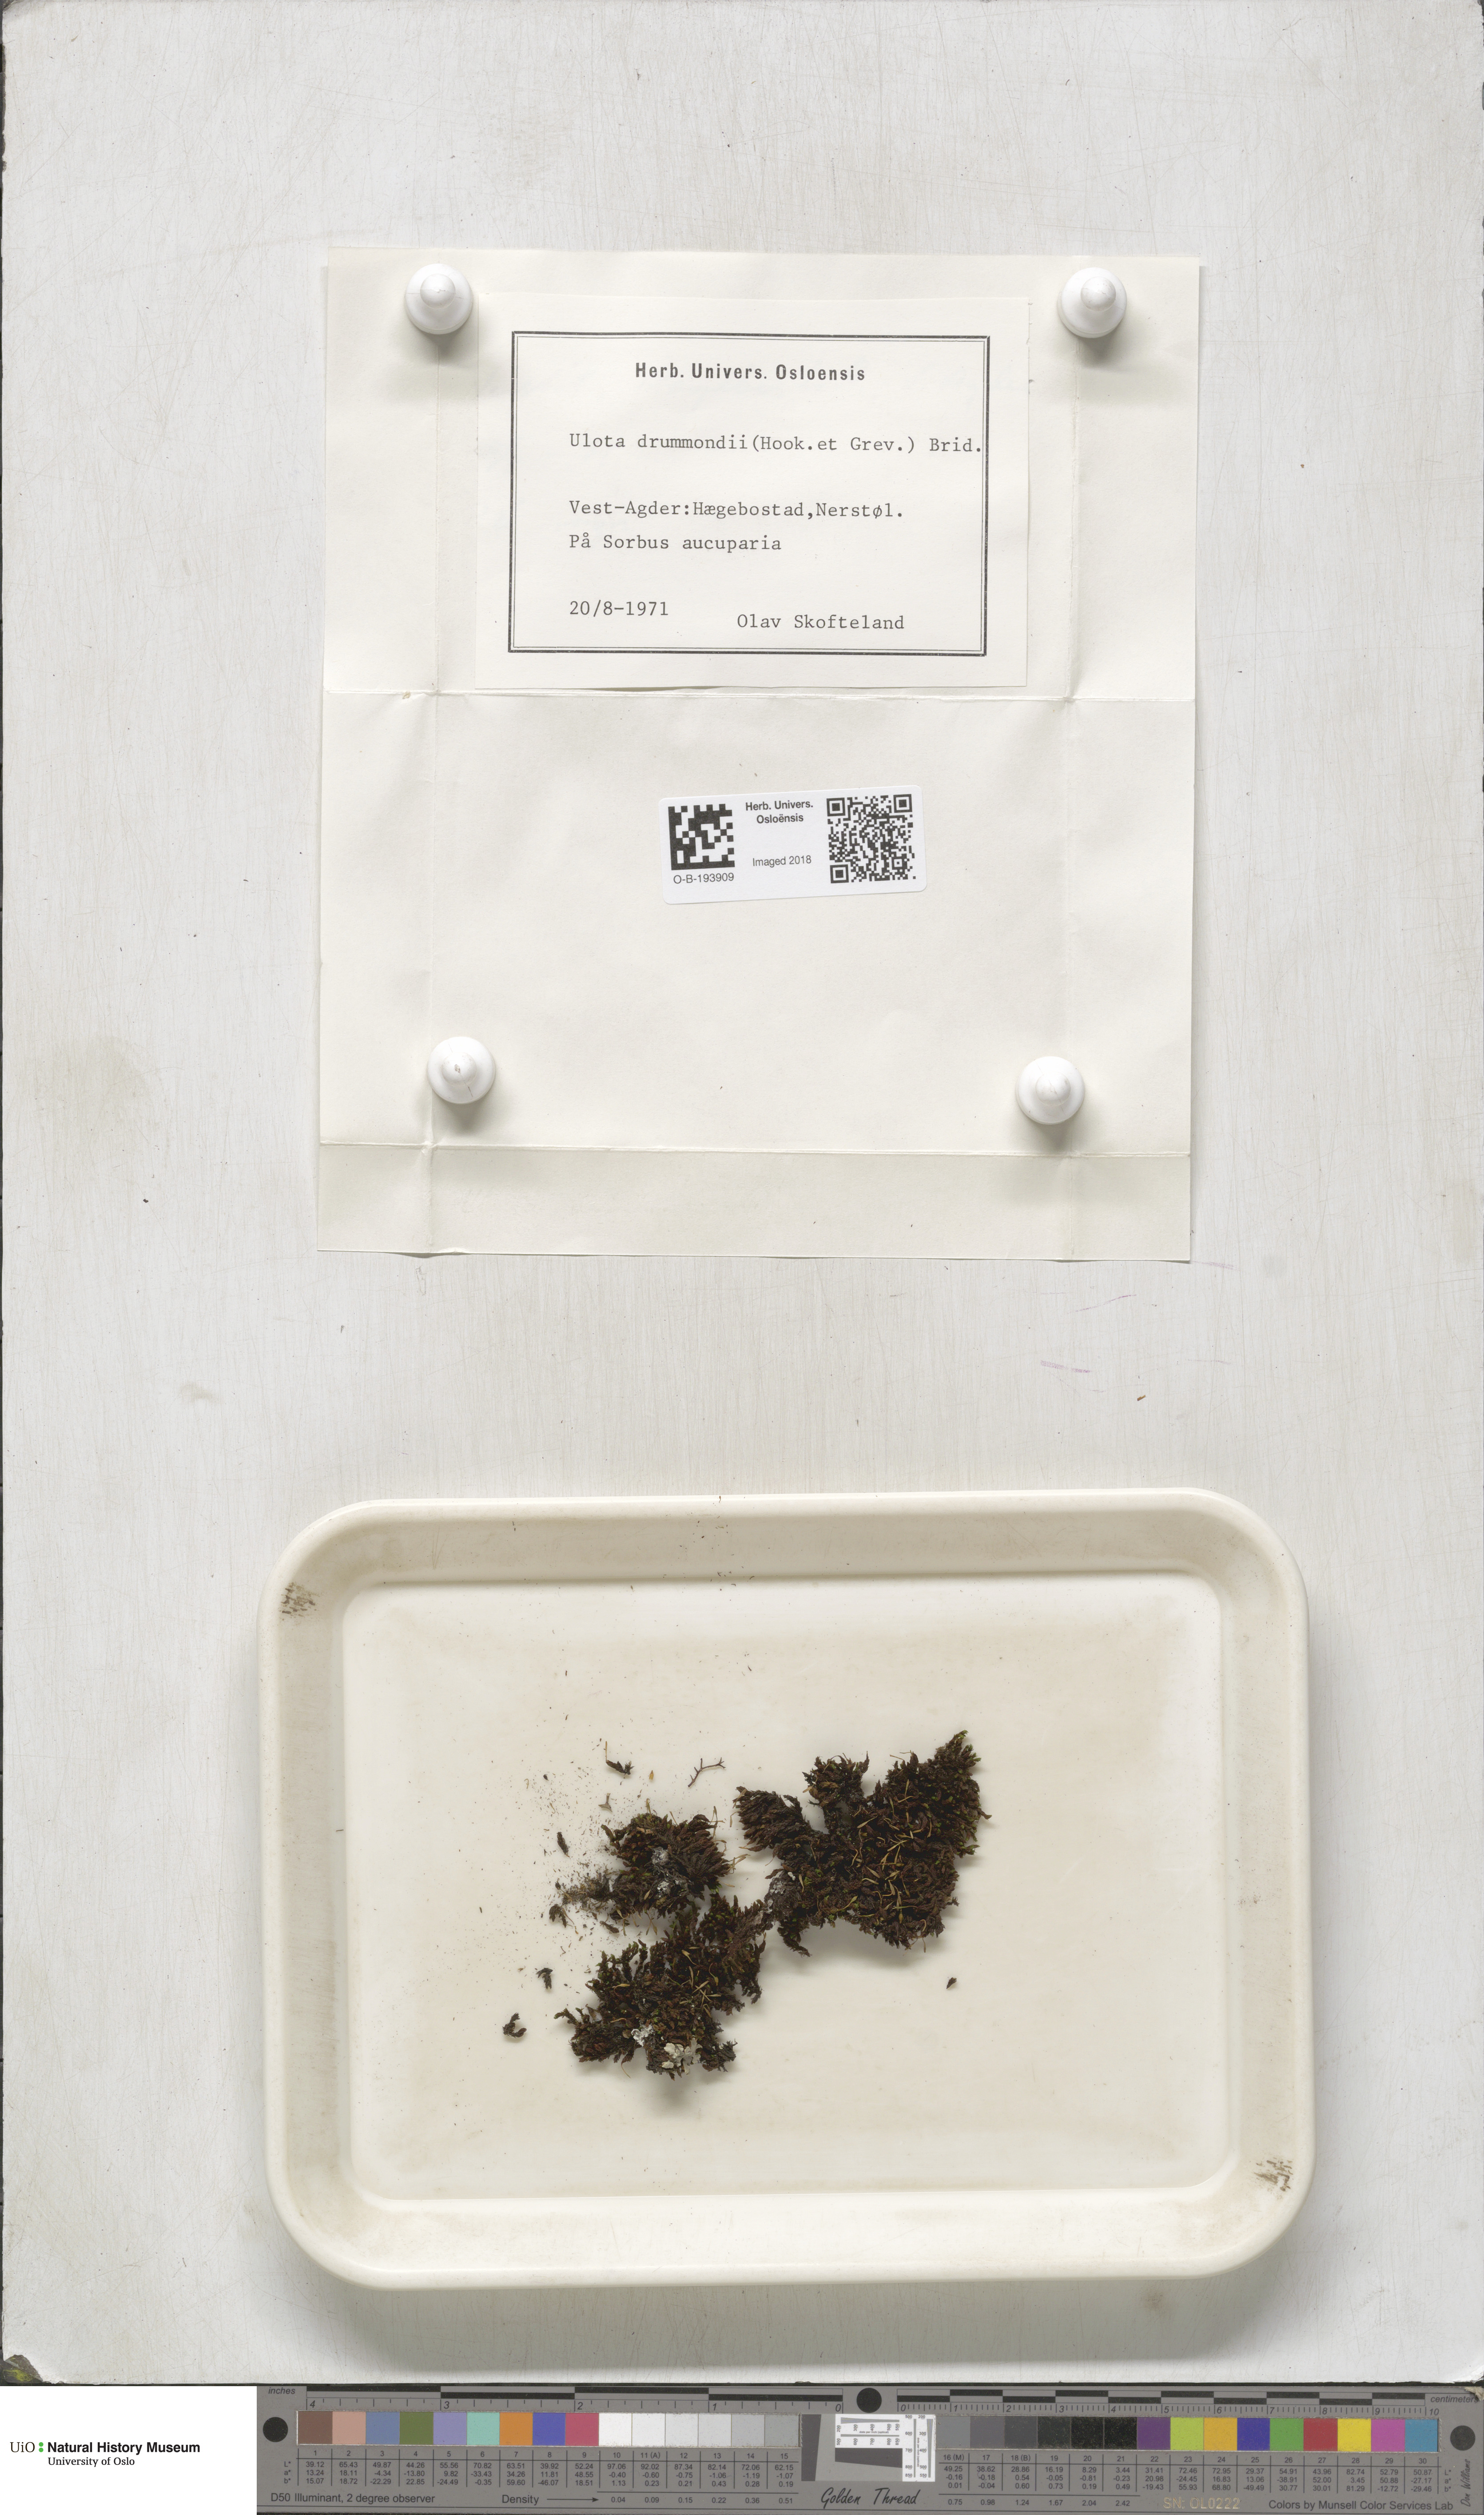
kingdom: Plantae
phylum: Bryophyta
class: Bryopsida
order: Orthotrichales
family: Orthotrichaceae
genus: Ulota
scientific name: Ulota drummondii
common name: Drummond's pincushion moss
